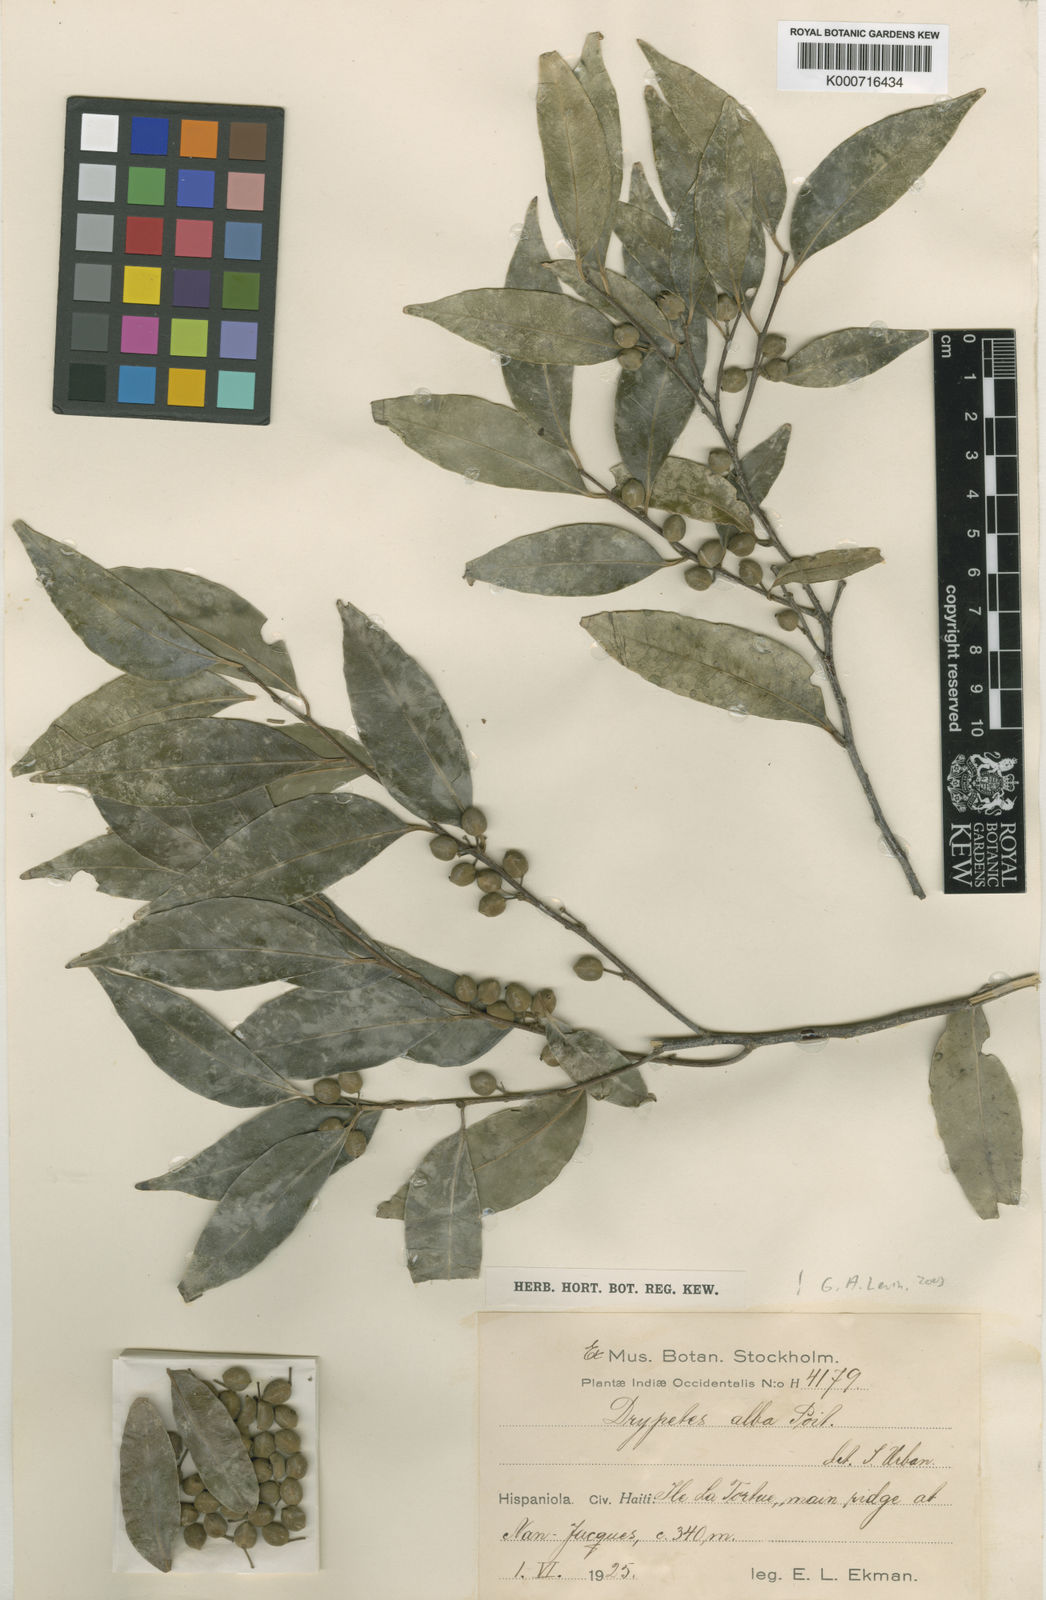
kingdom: Plantae
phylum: Tracheophyta
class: Magnoliopsida
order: Malpighiales
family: Putranjivaceae
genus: Drypetes
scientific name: Drypetes alba
